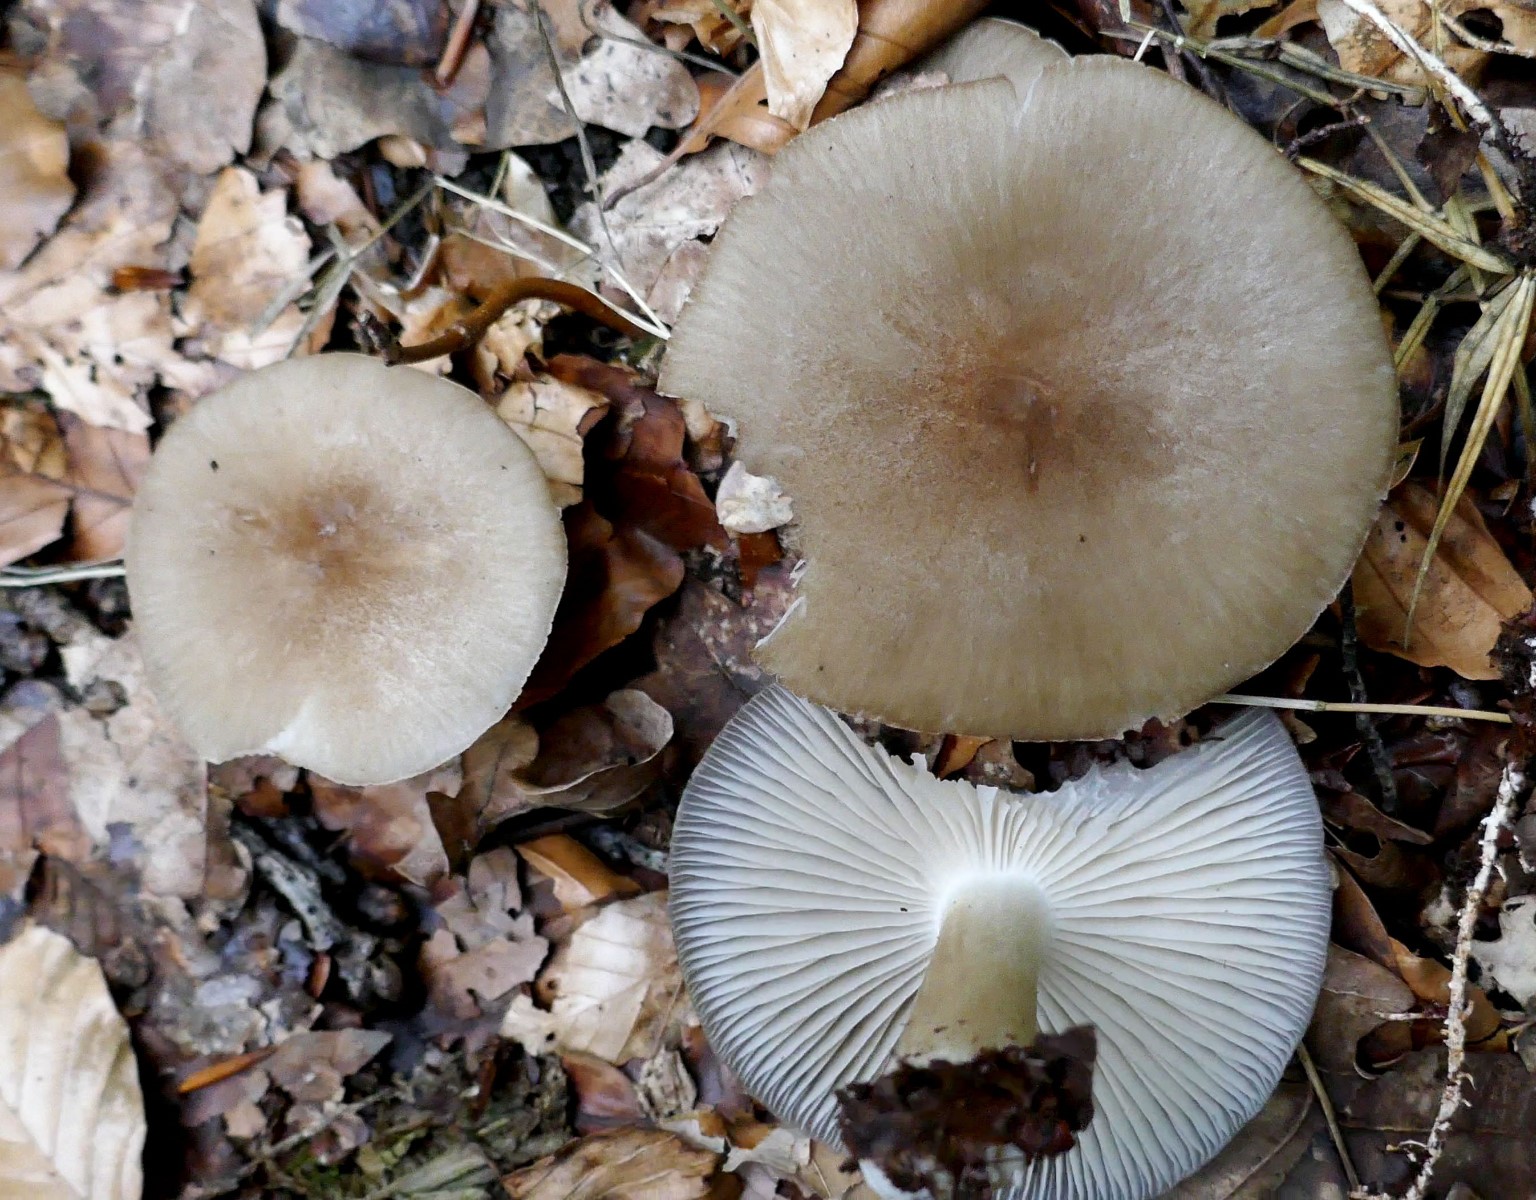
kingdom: Fungi
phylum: Basidiomycota
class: Agaricomycetes
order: Agaricales
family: Tricholomataceae
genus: Megacollybia
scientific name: Megacollybia platyphylla
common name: bredbladet væbnerhat
